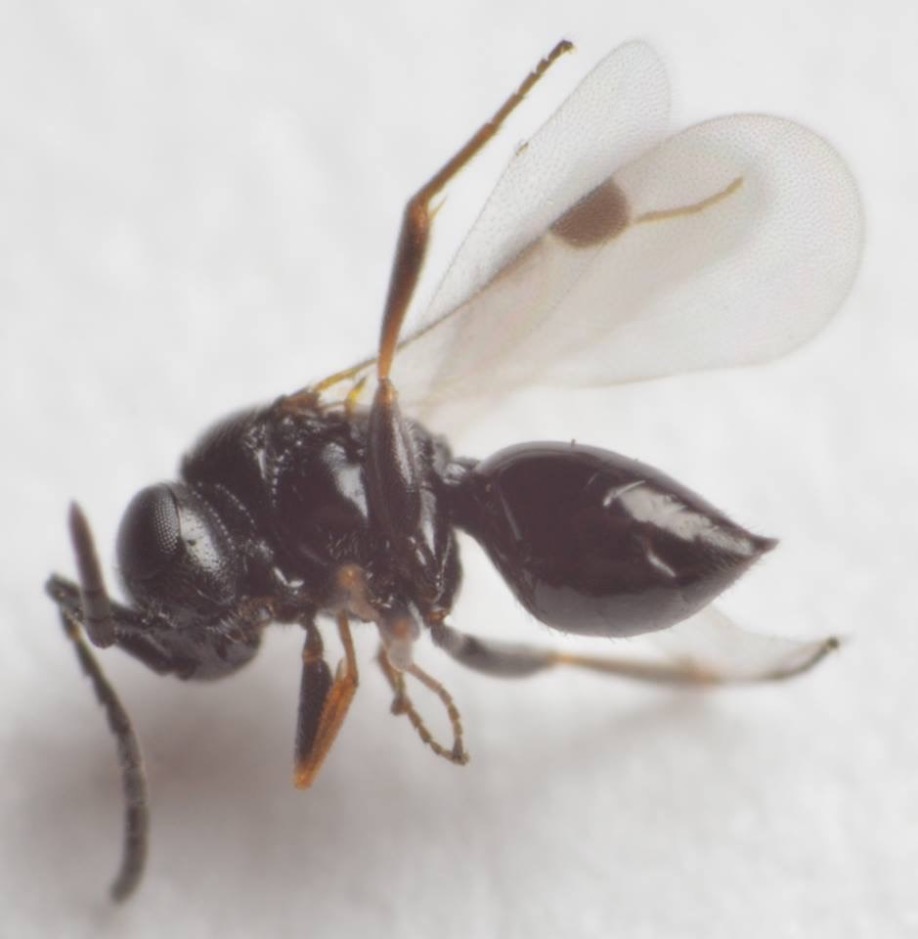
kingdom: Animalia
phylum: Arthropoda
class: Insecta
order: Hymenoptera
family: Megaspilidae
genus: Dendrocerus
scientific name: Dendrocerus
